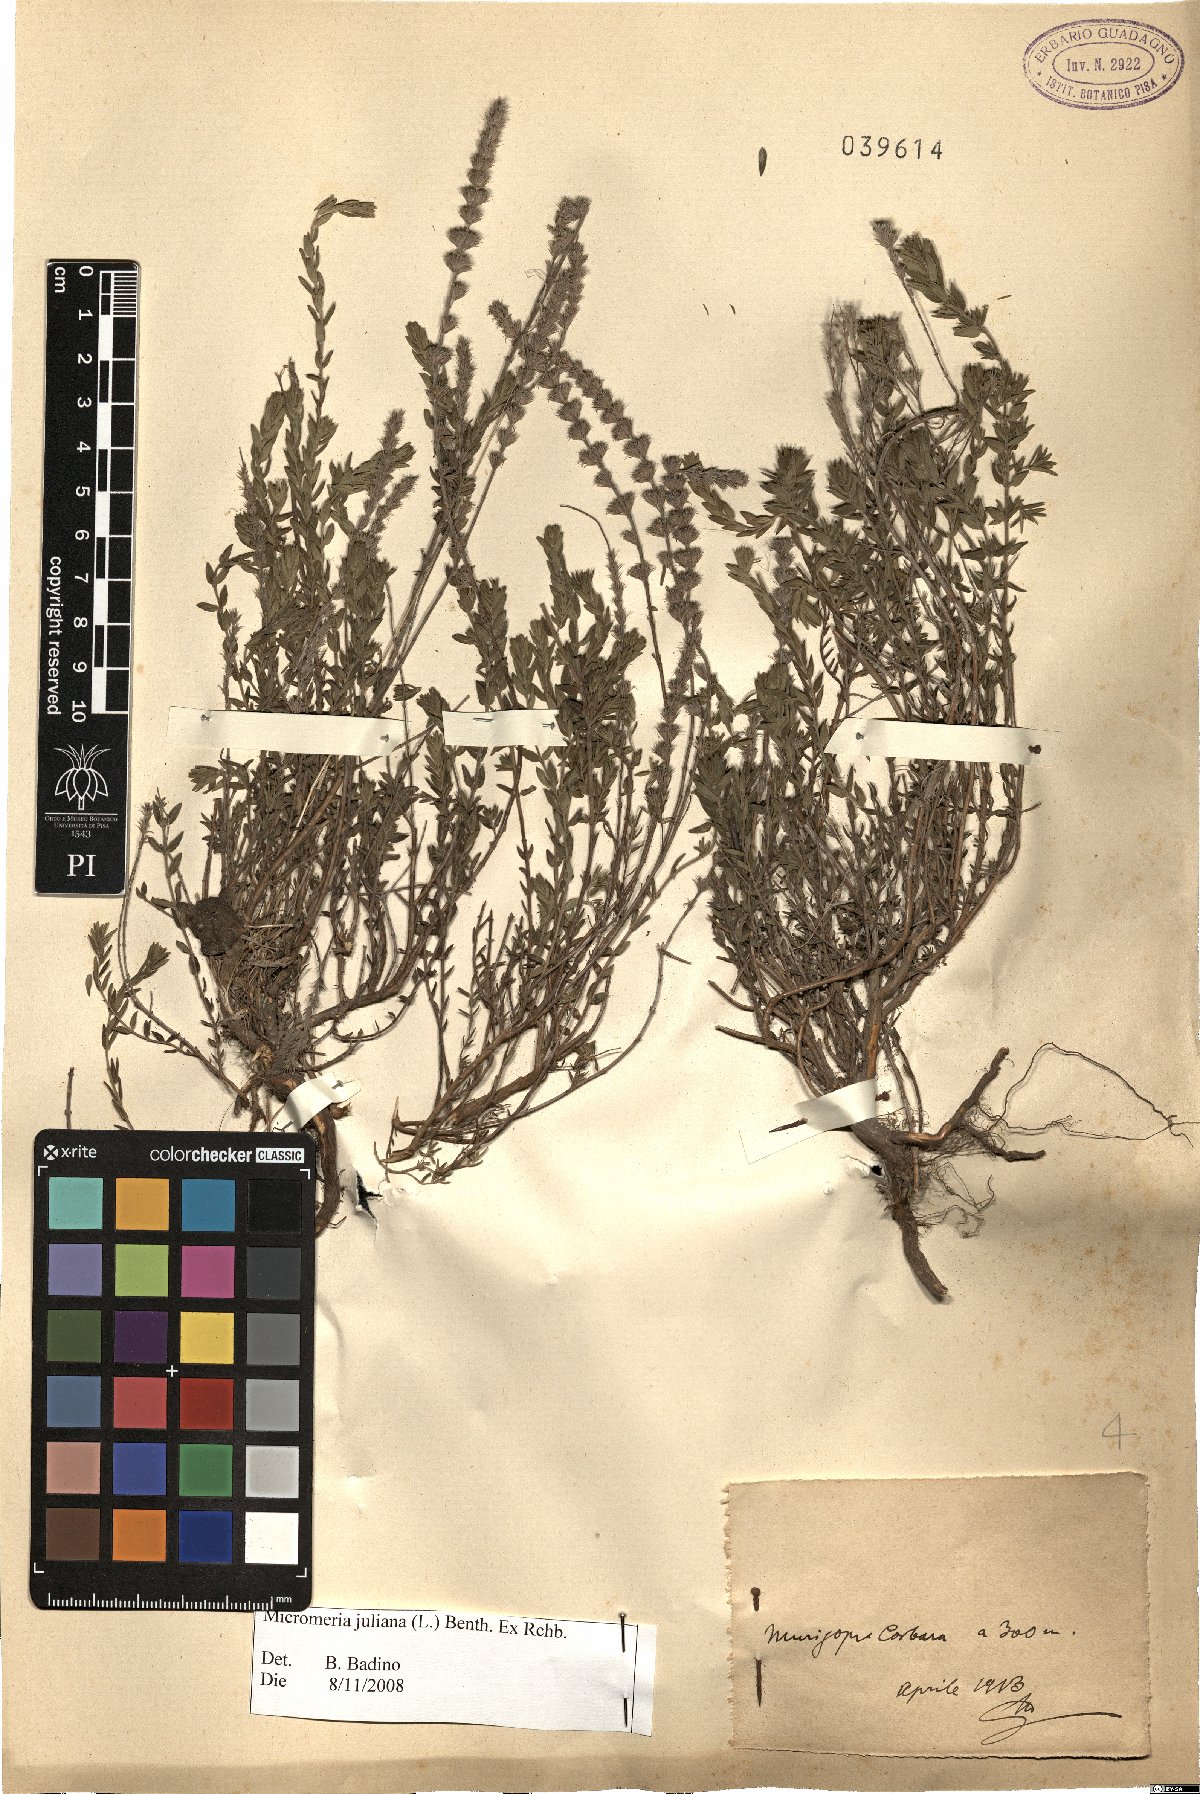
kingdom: Plantae
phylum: Tracheophyta
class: Magnoliopsida
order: Lamiales
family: Lamiaceae
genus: Micromeria
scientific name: Micromeria juliana
